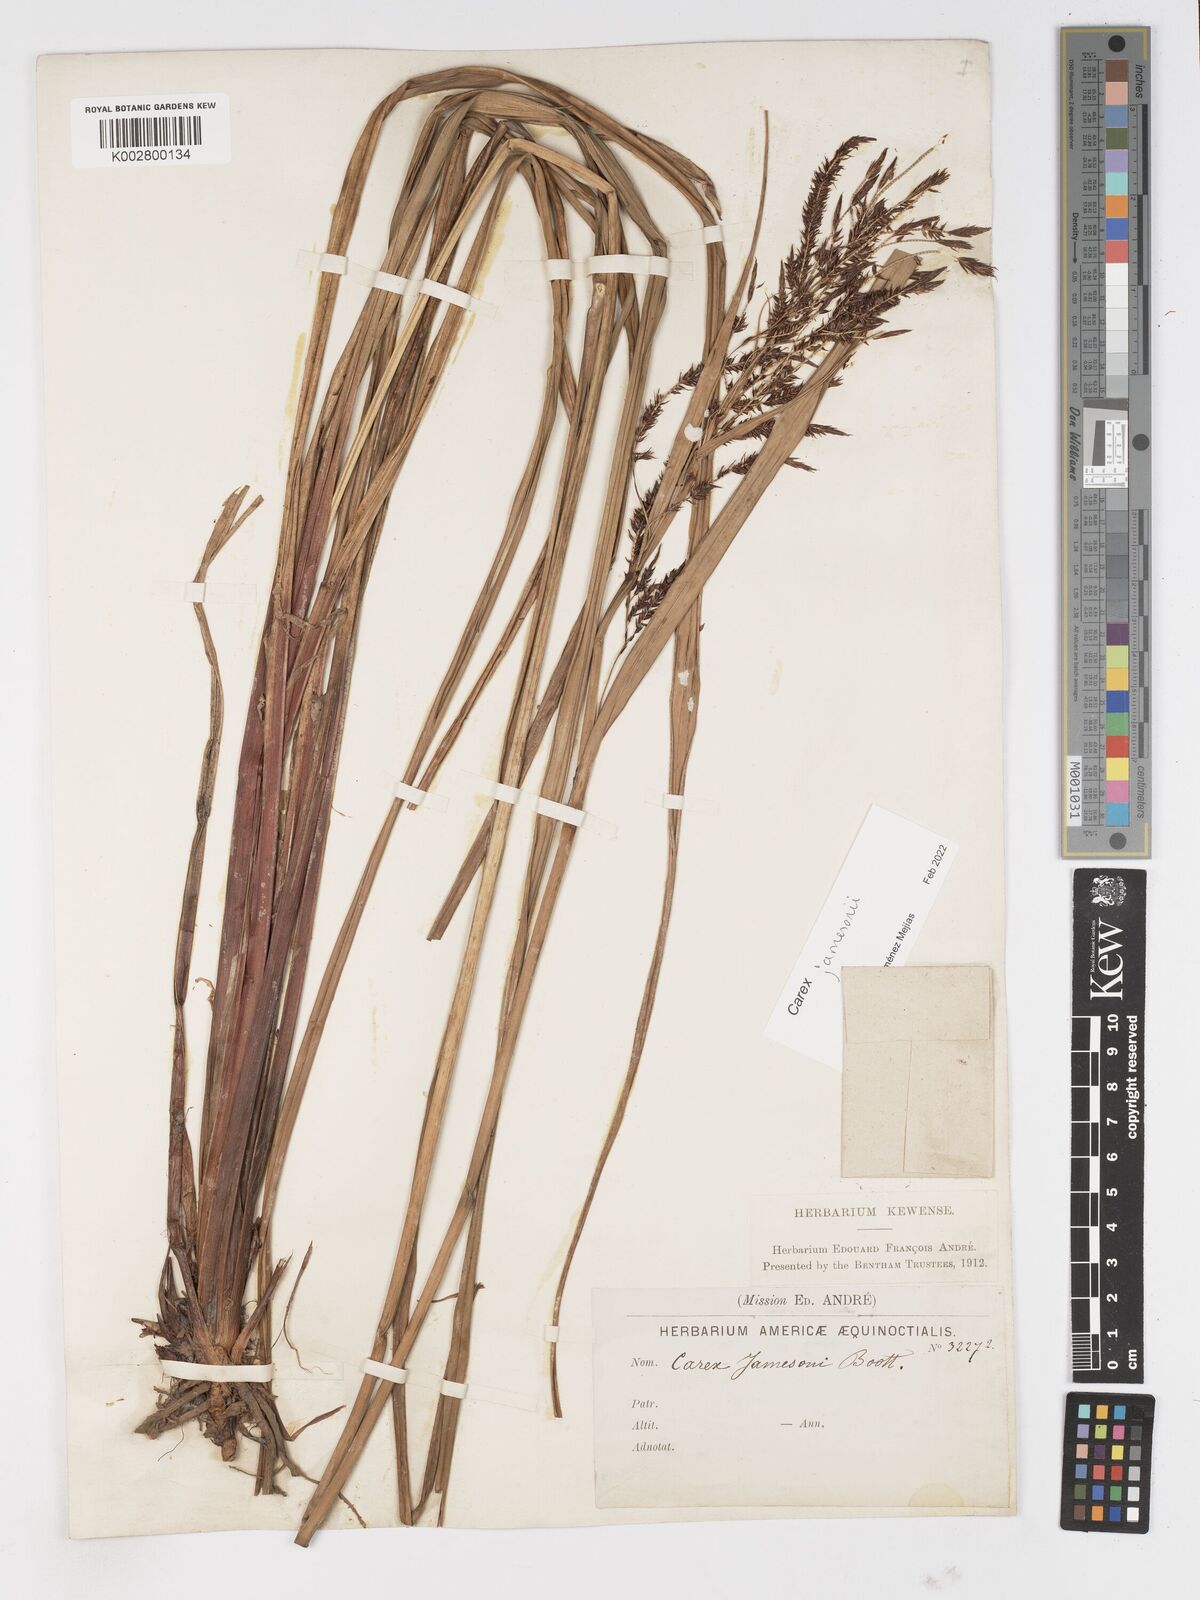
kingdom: Plantae
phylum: Tracheophyta
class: Liliopsida
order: Poales
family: Cyperaceae
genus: Carex
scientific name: Carex jamesonii
